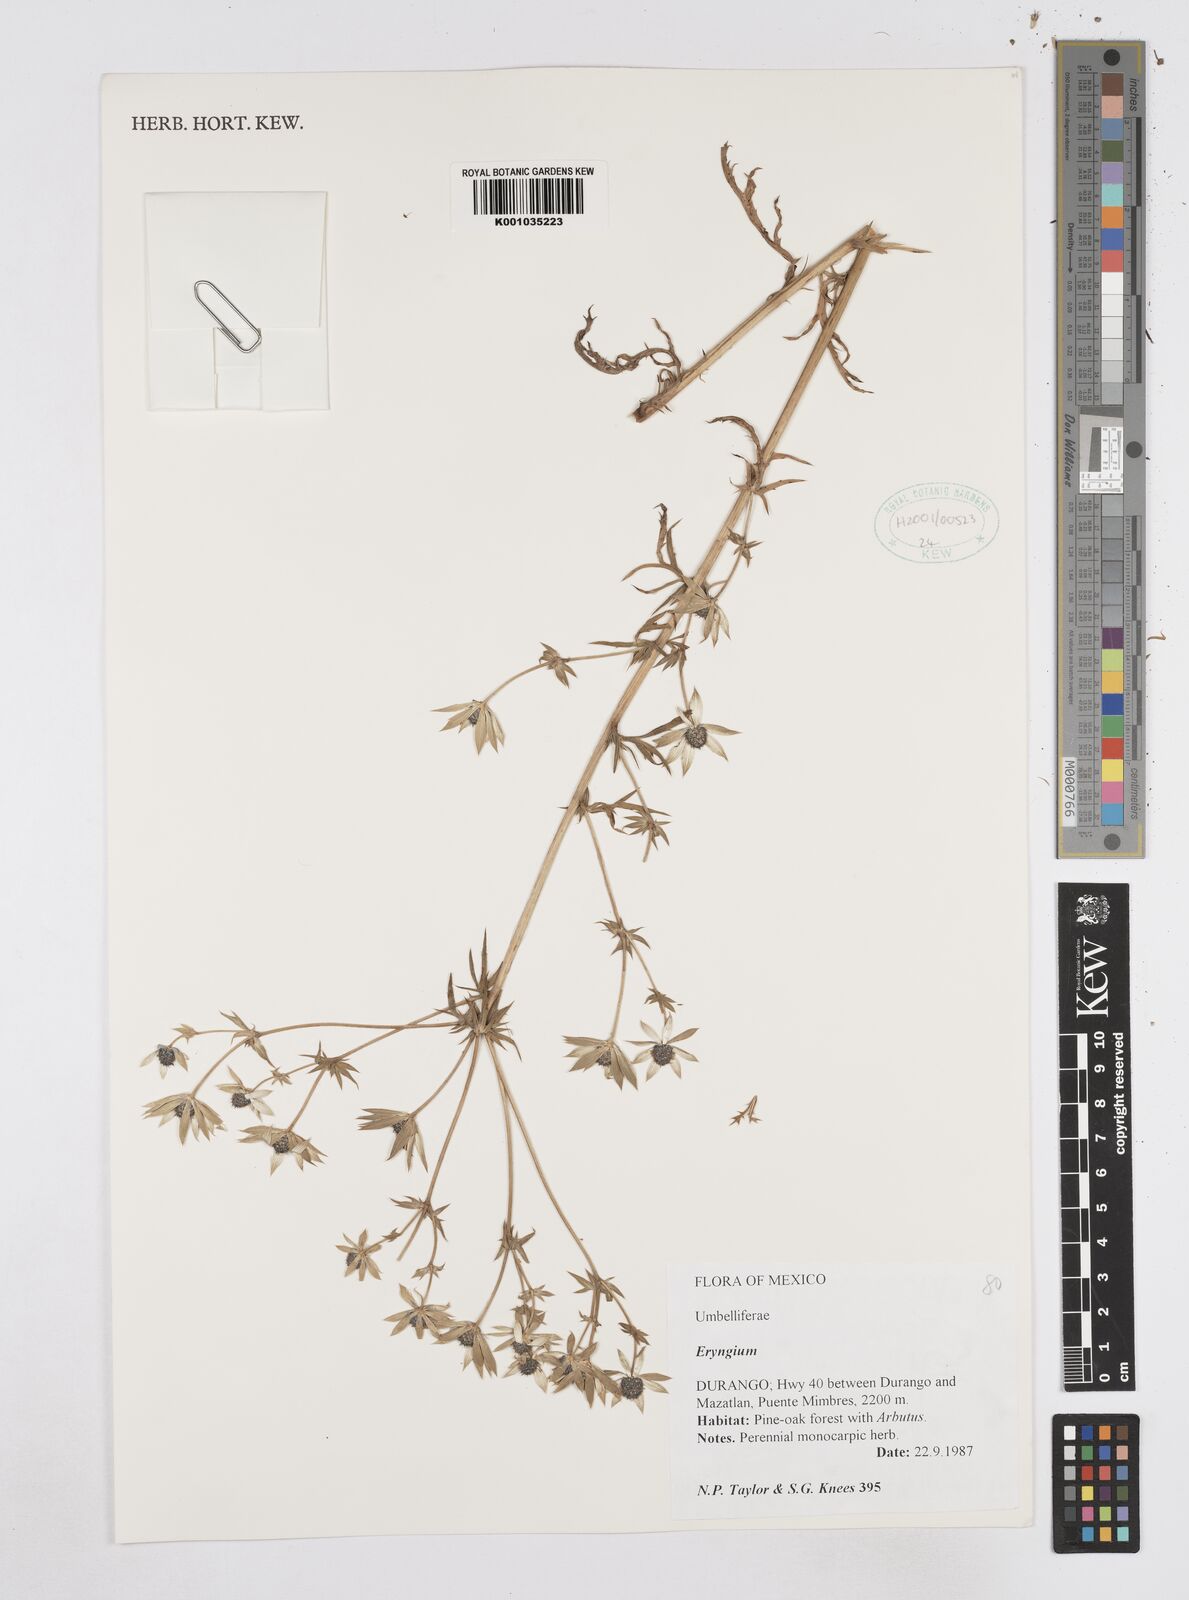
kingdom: Plantae
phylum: Tracheophyta
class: Magnoliopsida
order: Apiales
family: Apiaceae
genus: Eryngium
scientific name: Eryngium
